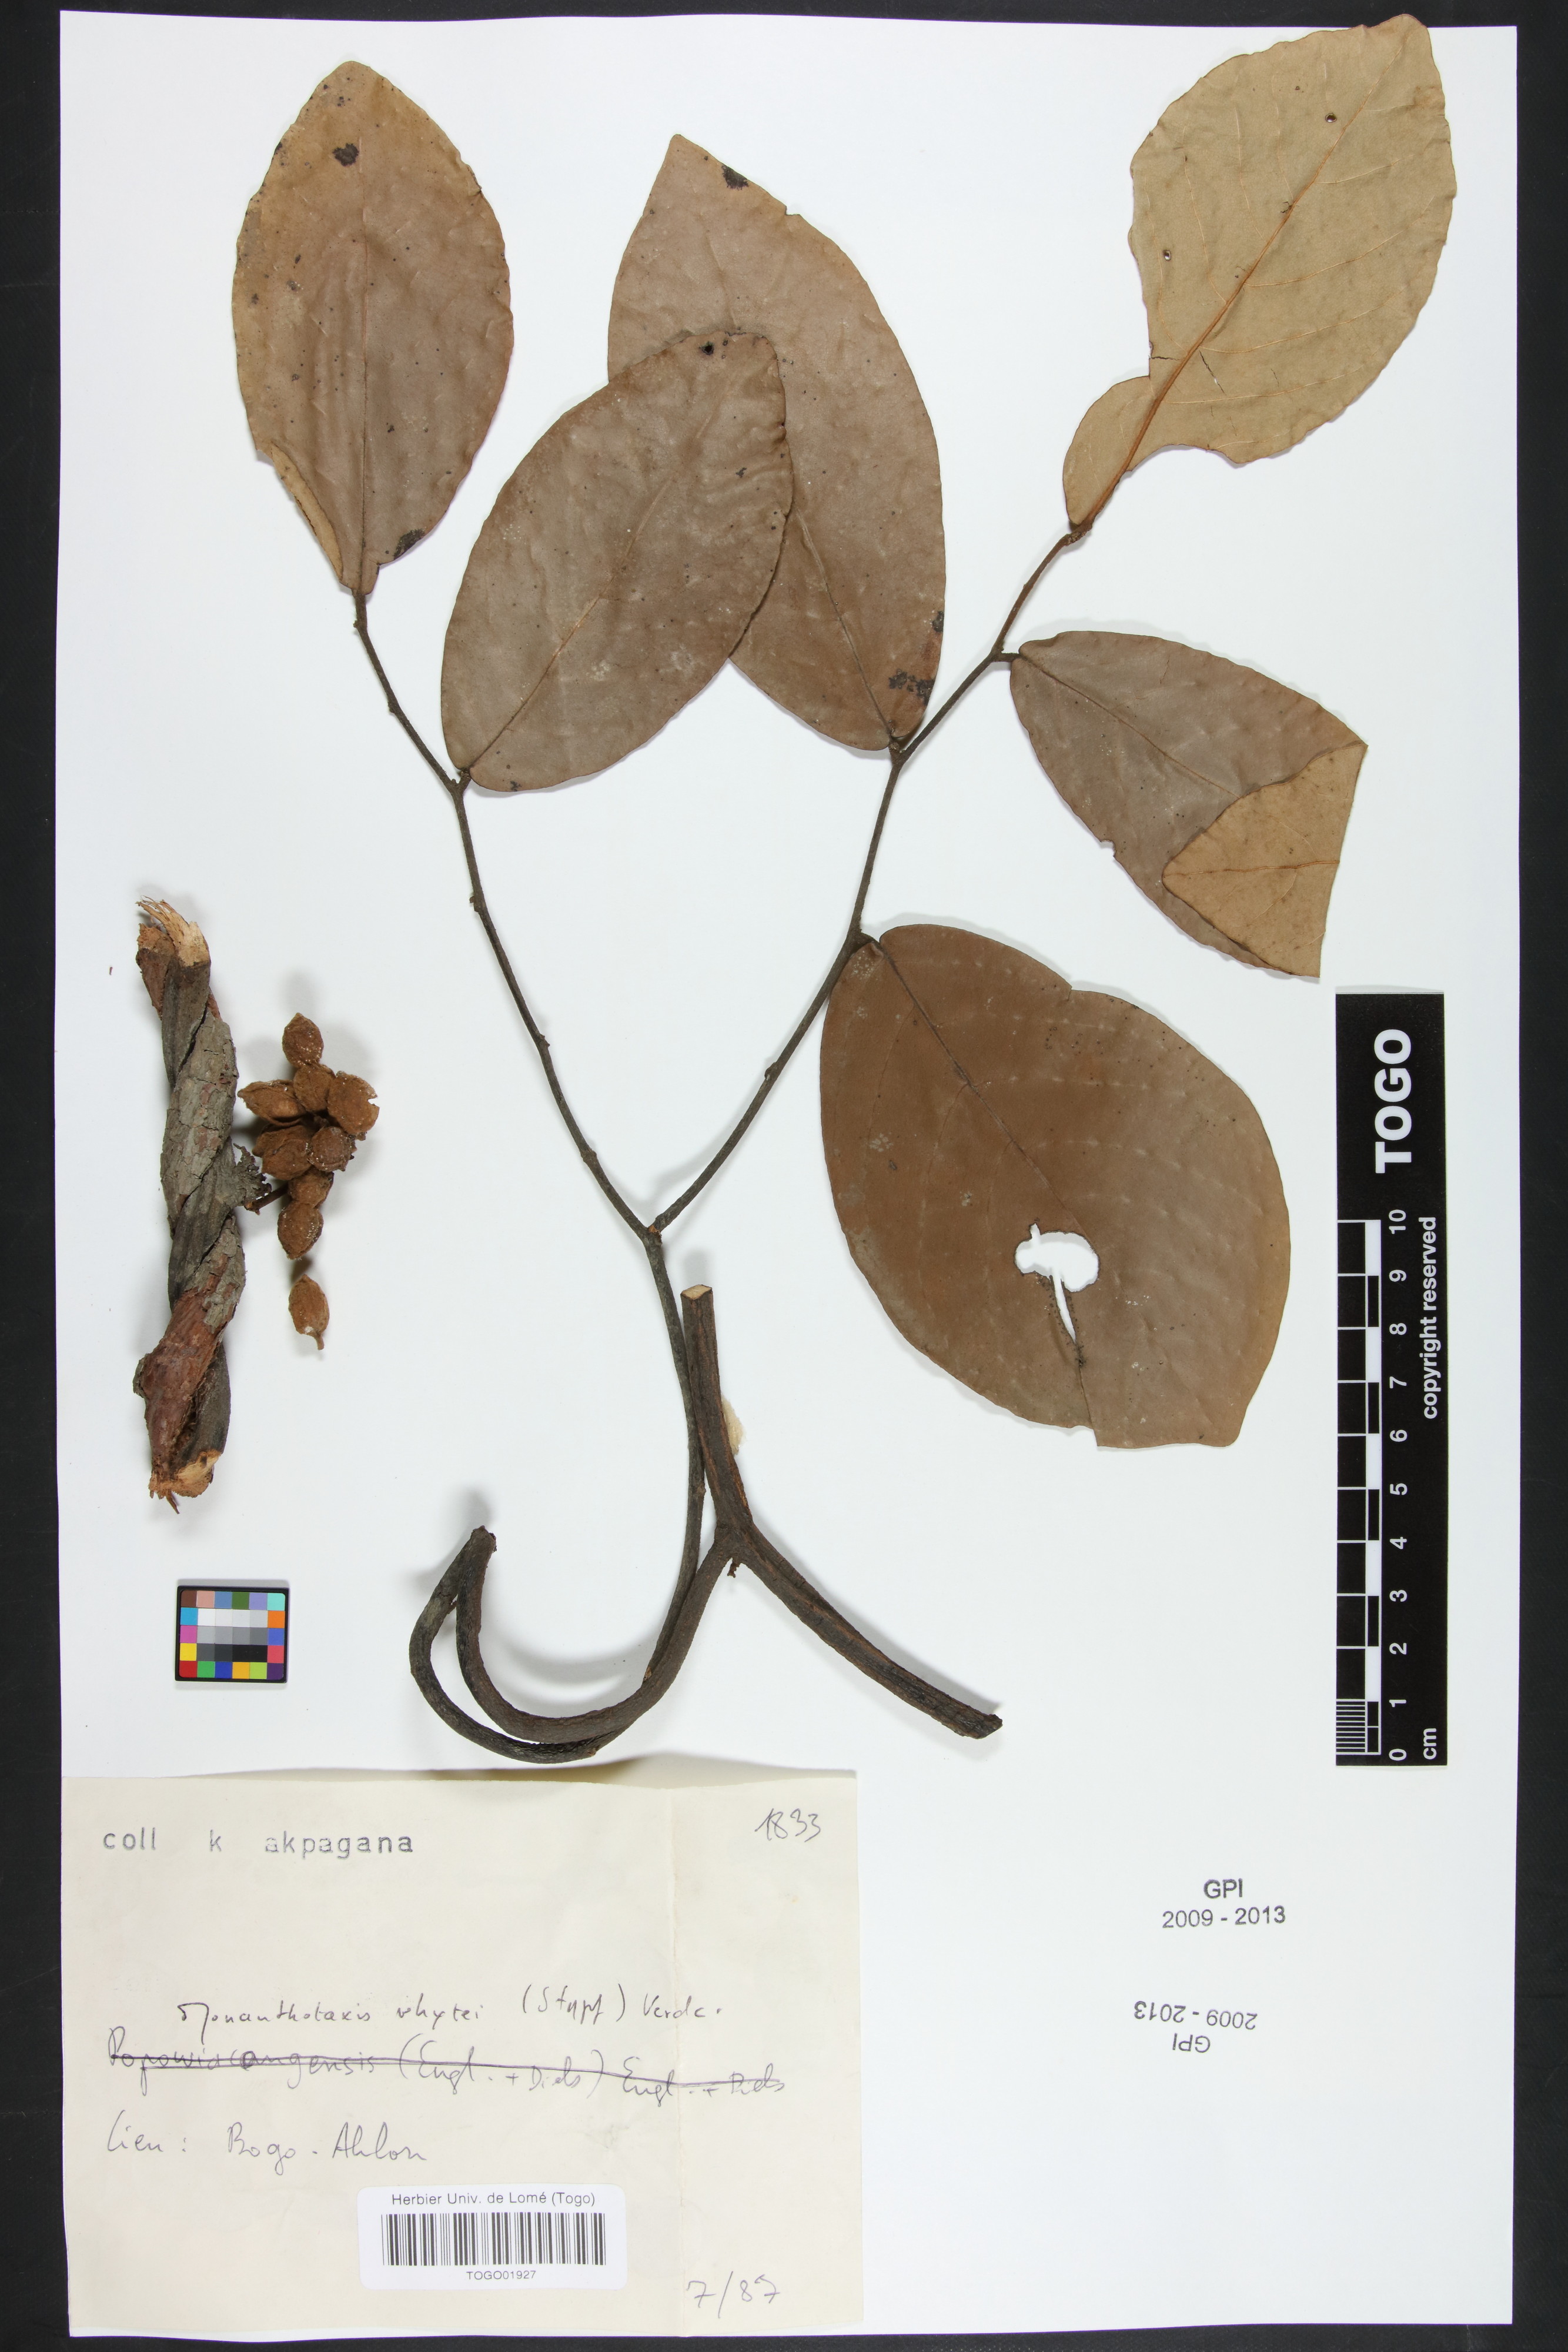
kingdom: Plantae
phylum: Tracheophyta
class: Magnoliopsida
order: Magnoliales
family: Annonaceae
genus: Monanthotaxis
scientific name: Monanthotaxis whytei
